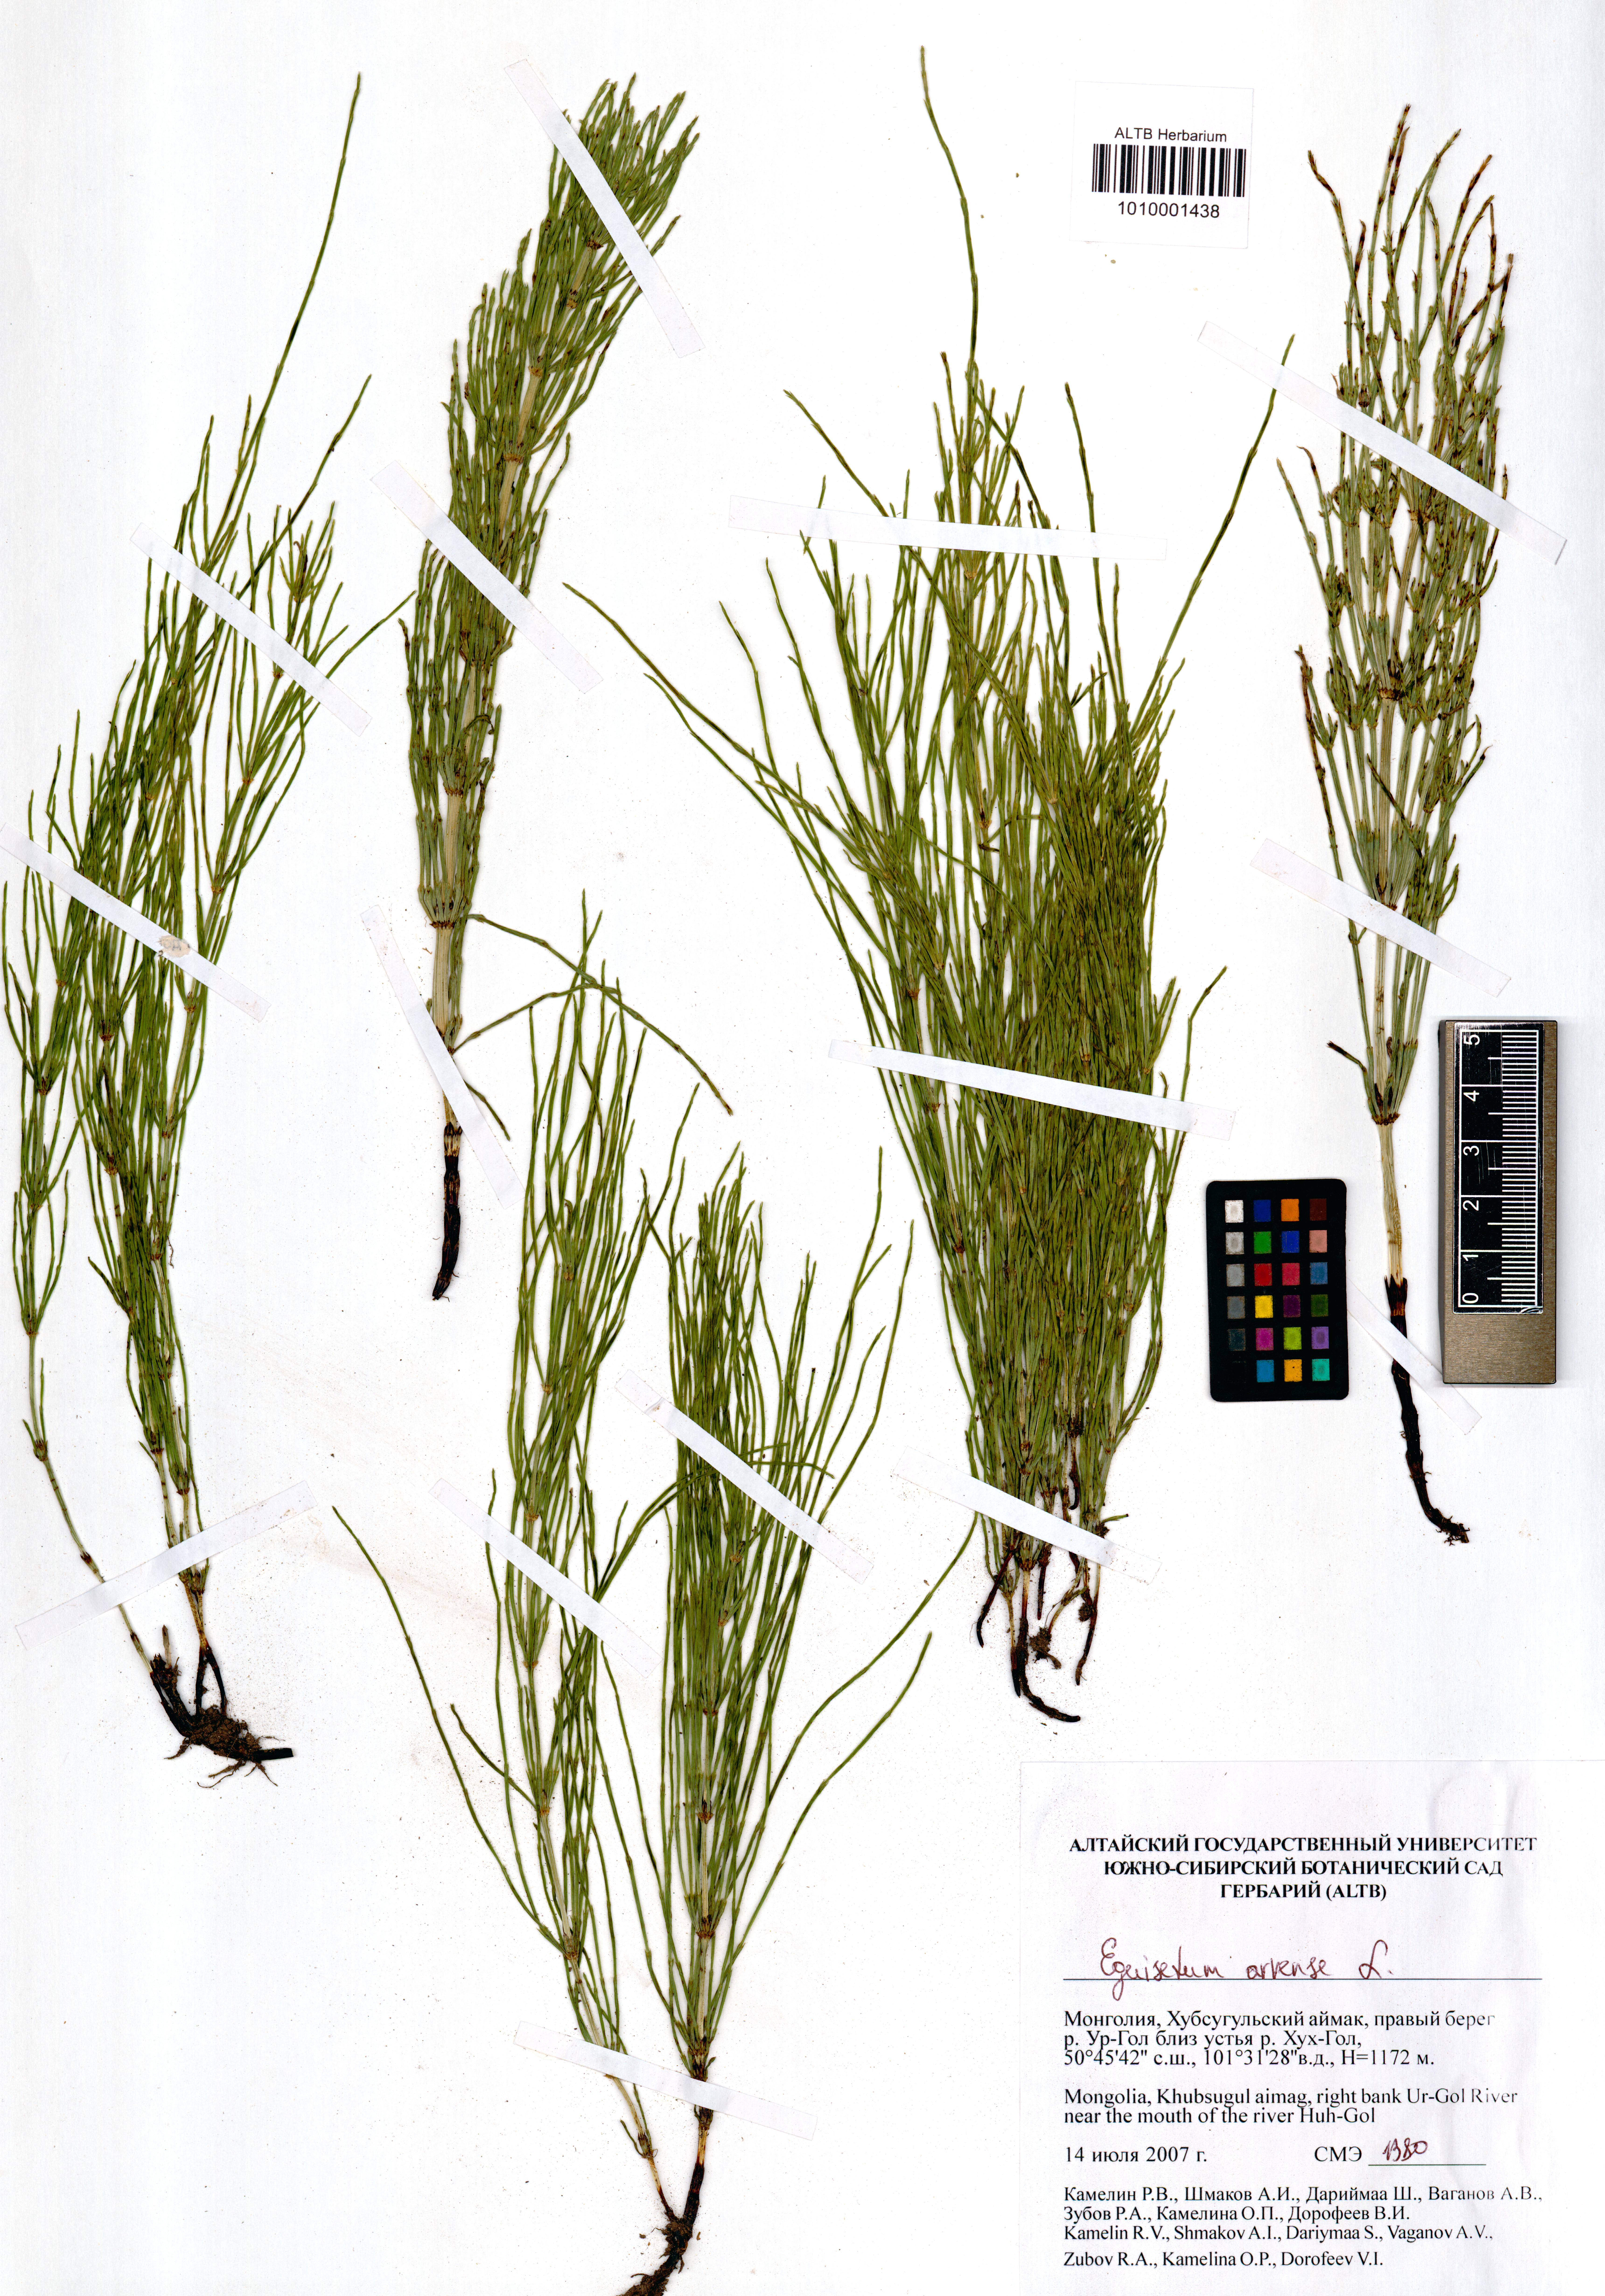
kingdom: Plantae
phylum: Tracheophyta
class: Polypodiopsida
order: Equisetales
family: Equisetaceae
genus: Equisetum
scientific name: Equisetum arvense
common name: Field horsetail
